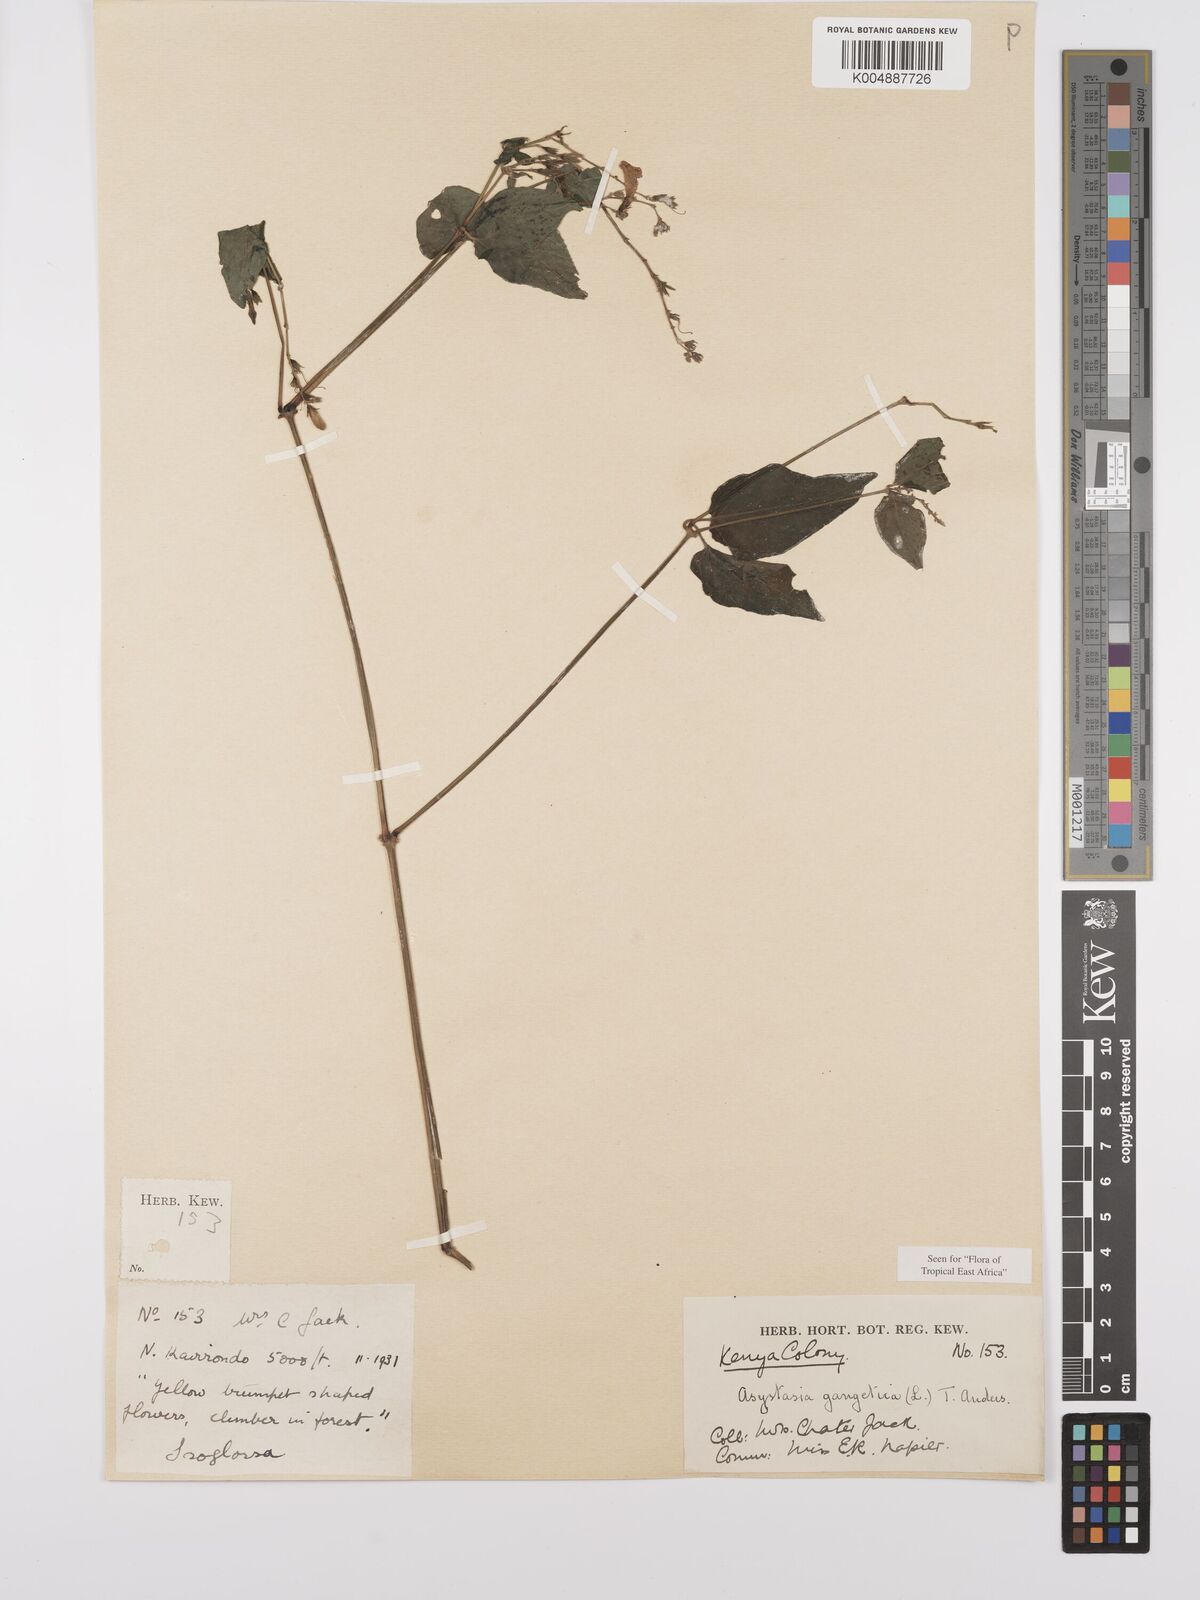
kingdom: Plantae
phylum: Tracheophyta
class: Magnoliopsida
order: Lamiales
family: Acanthaceae
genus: Asystasia
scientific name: Asystasia gangetica
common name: Chinese violet
